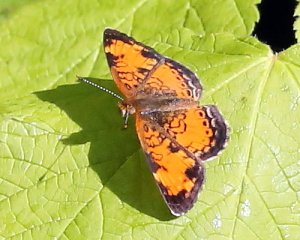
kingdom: Animalia
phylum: Arthropoda
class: Insecta
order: Lepidoptera
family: Nymphalidae
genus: Phyciodes
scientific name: Phyciodes tharos
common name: Northern Crescent
